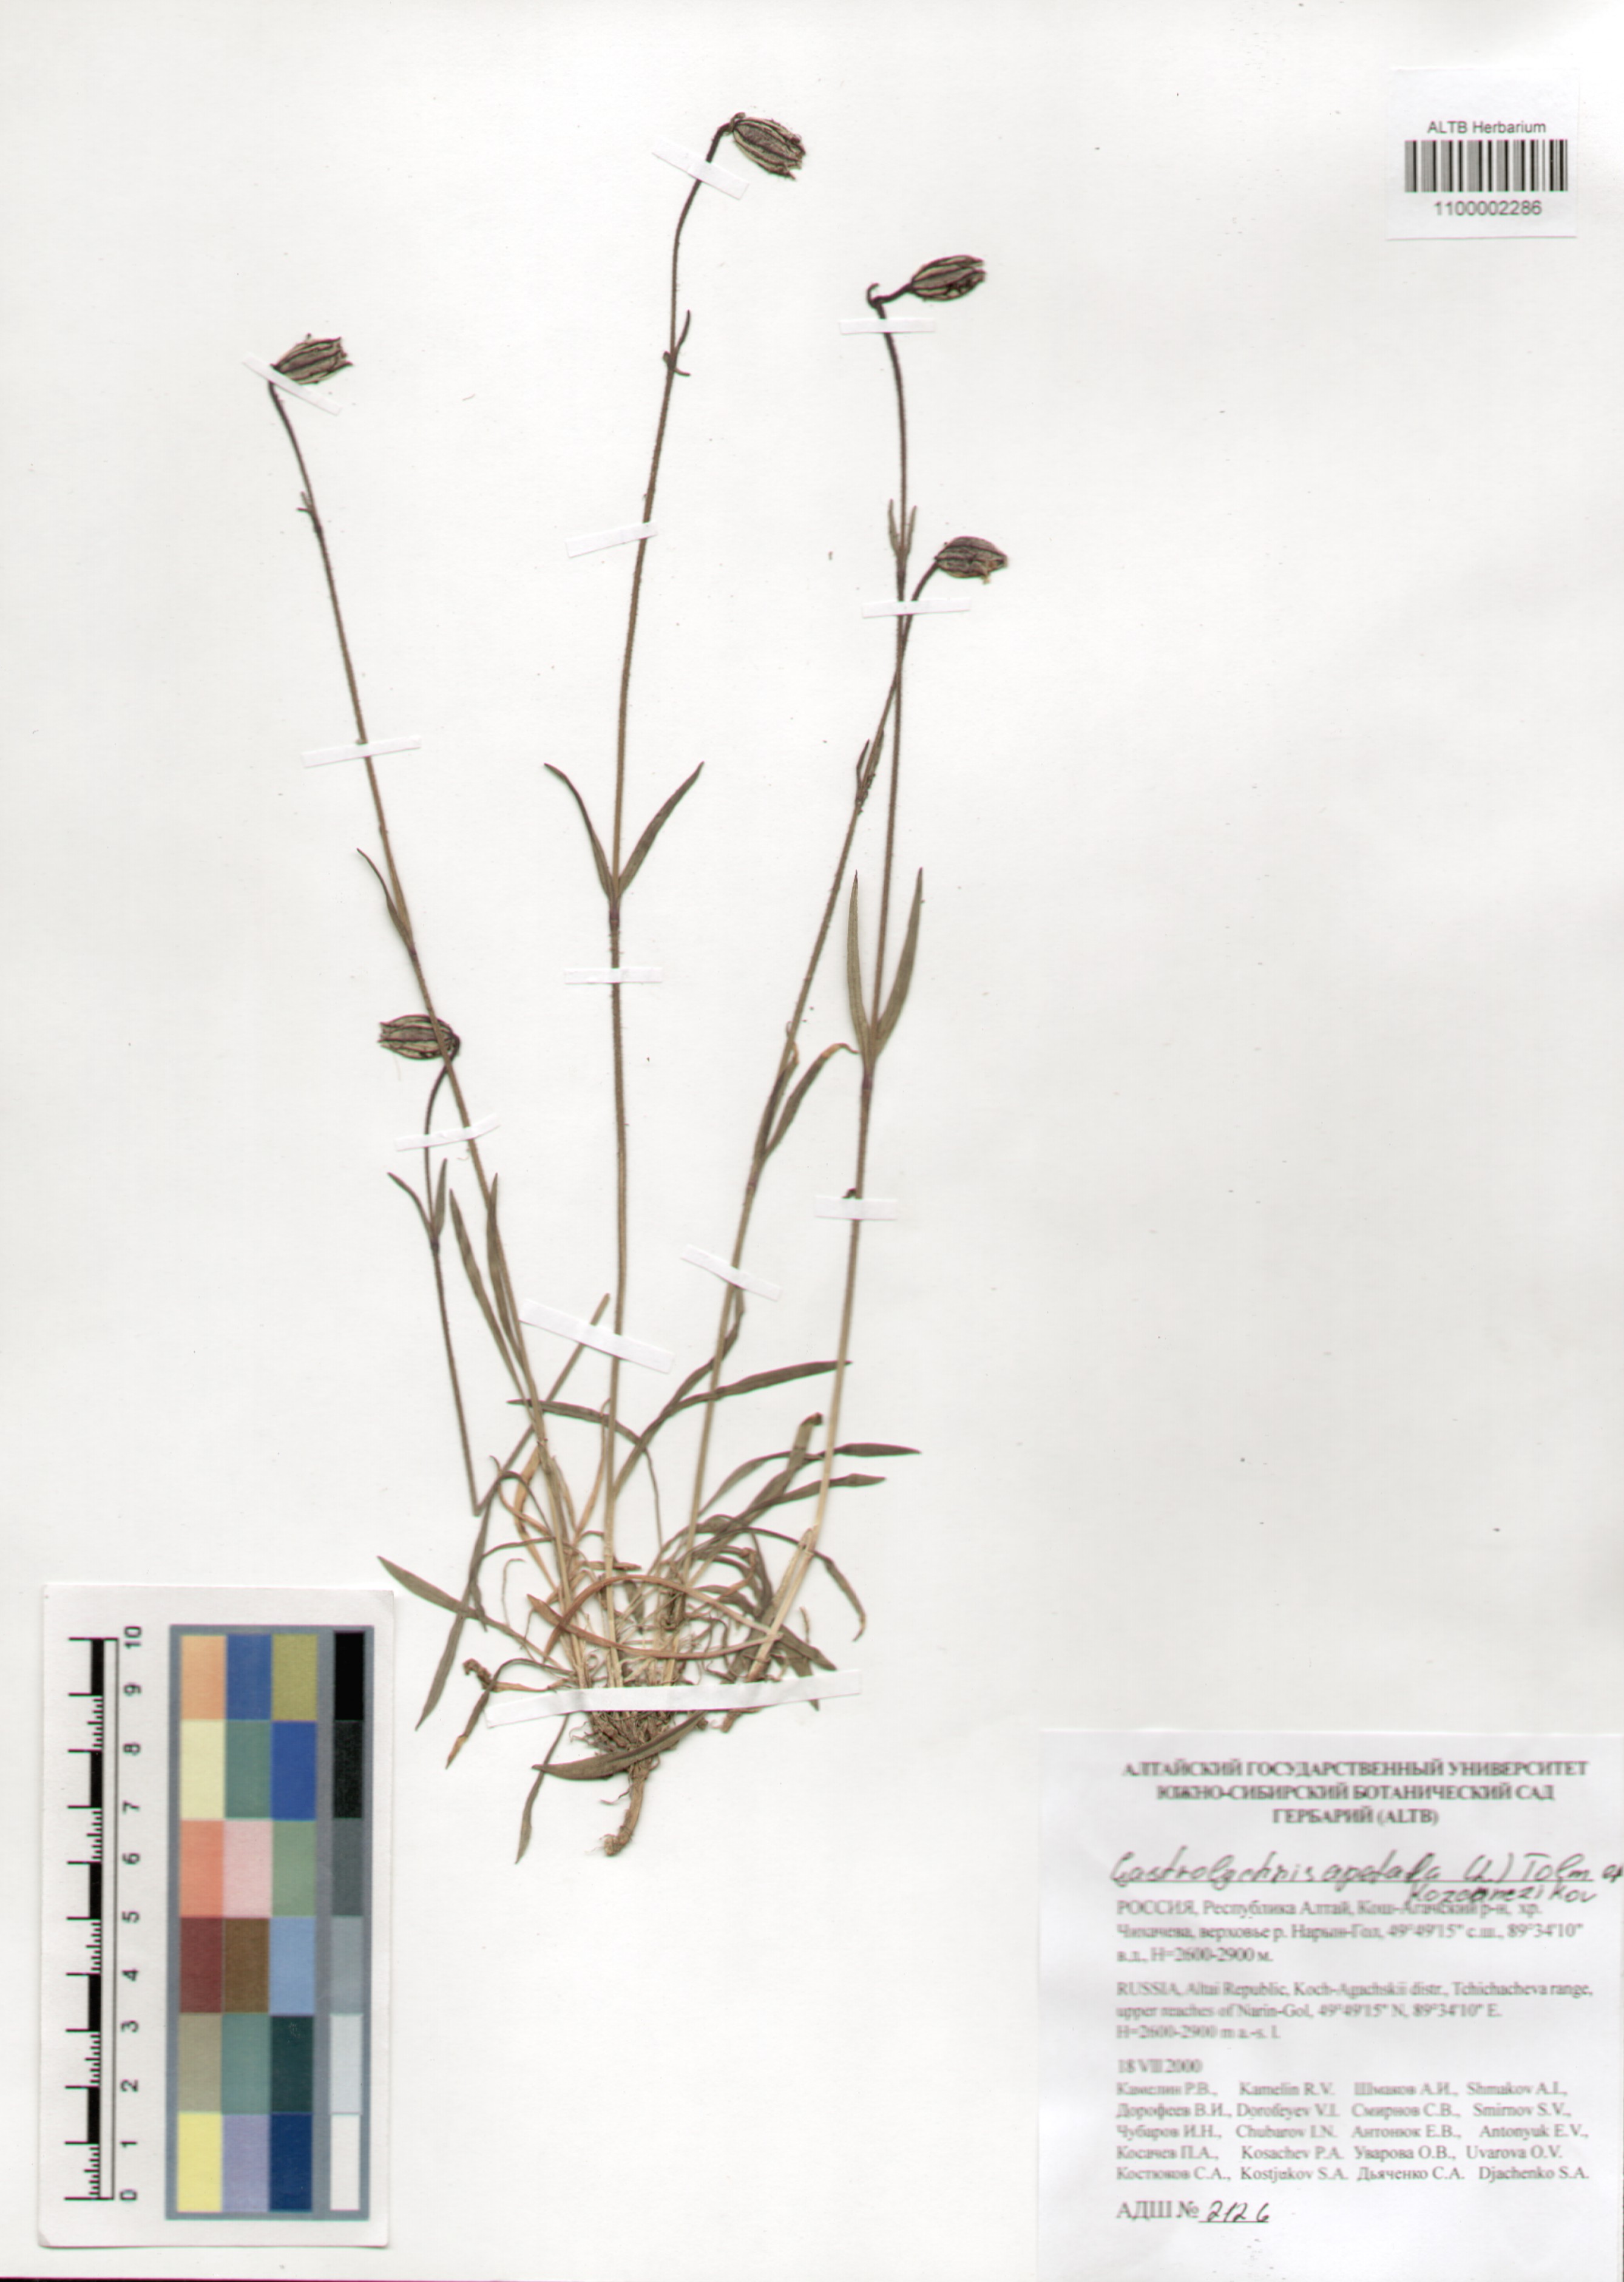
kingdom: Plantae
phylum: Tracheophyta
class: Magnoliopsida
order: Caryophyllales
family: Caryophyllaceae
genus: Silene
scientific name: Silene wahlbergella
